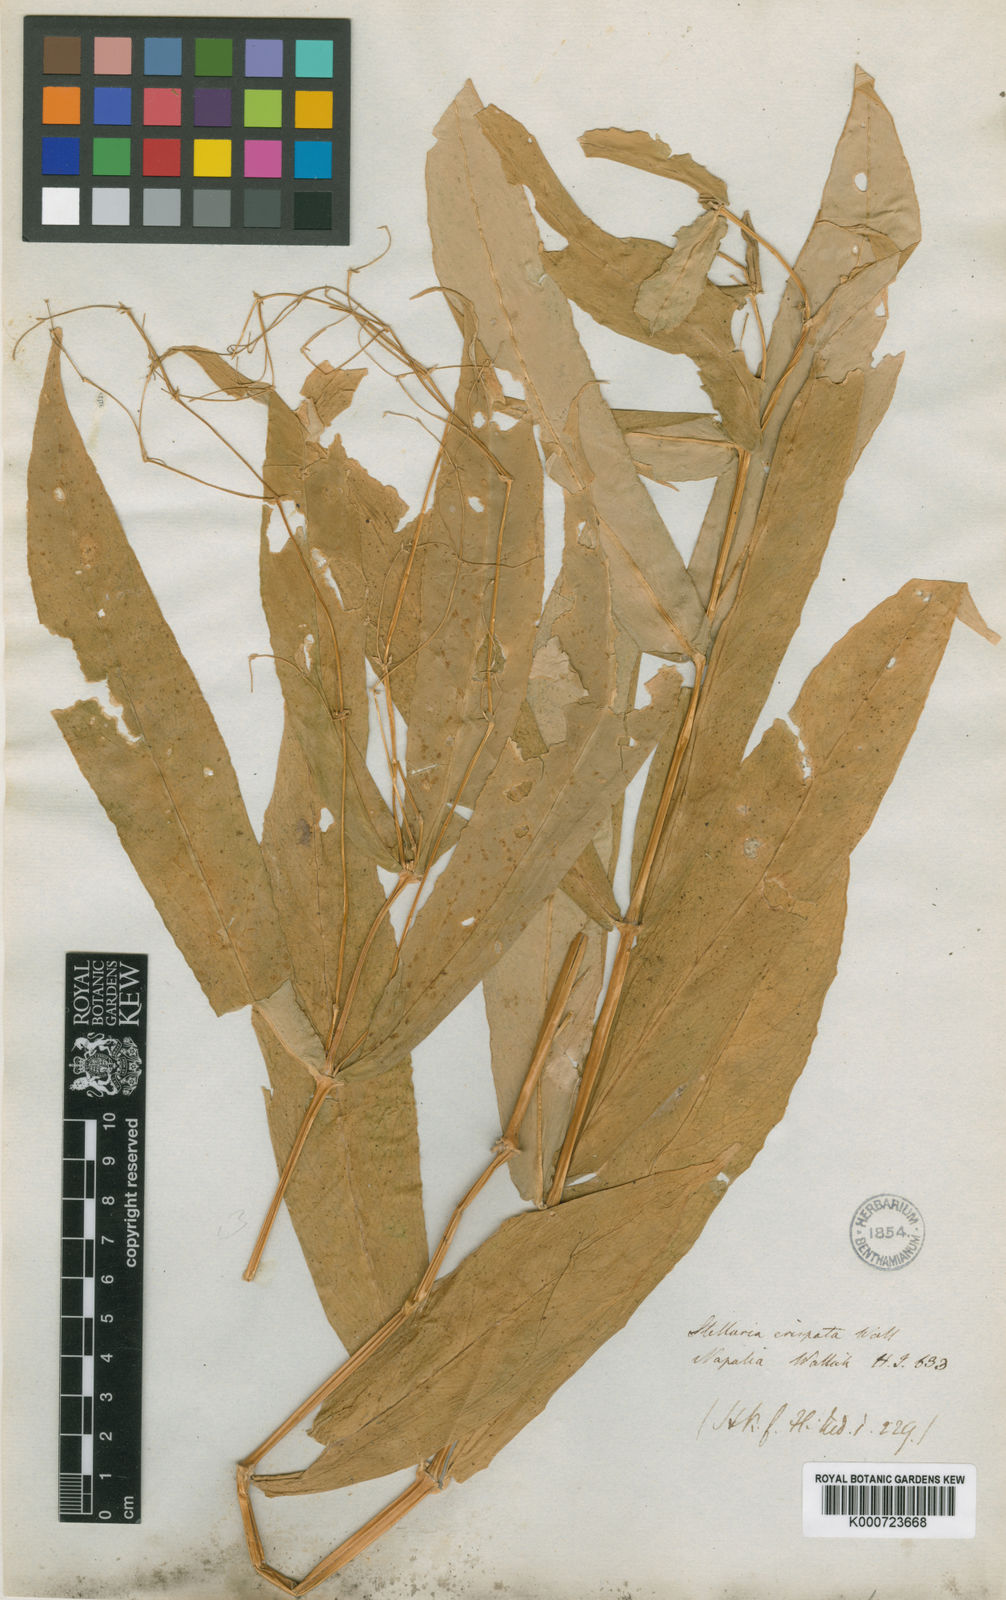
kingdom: Plantae
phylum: Tracheophyta
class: Magnoliopsida
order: Caryophyllales
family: Caryophyllaceae
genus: Schizotechium
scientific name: Schizotechium monospermum
